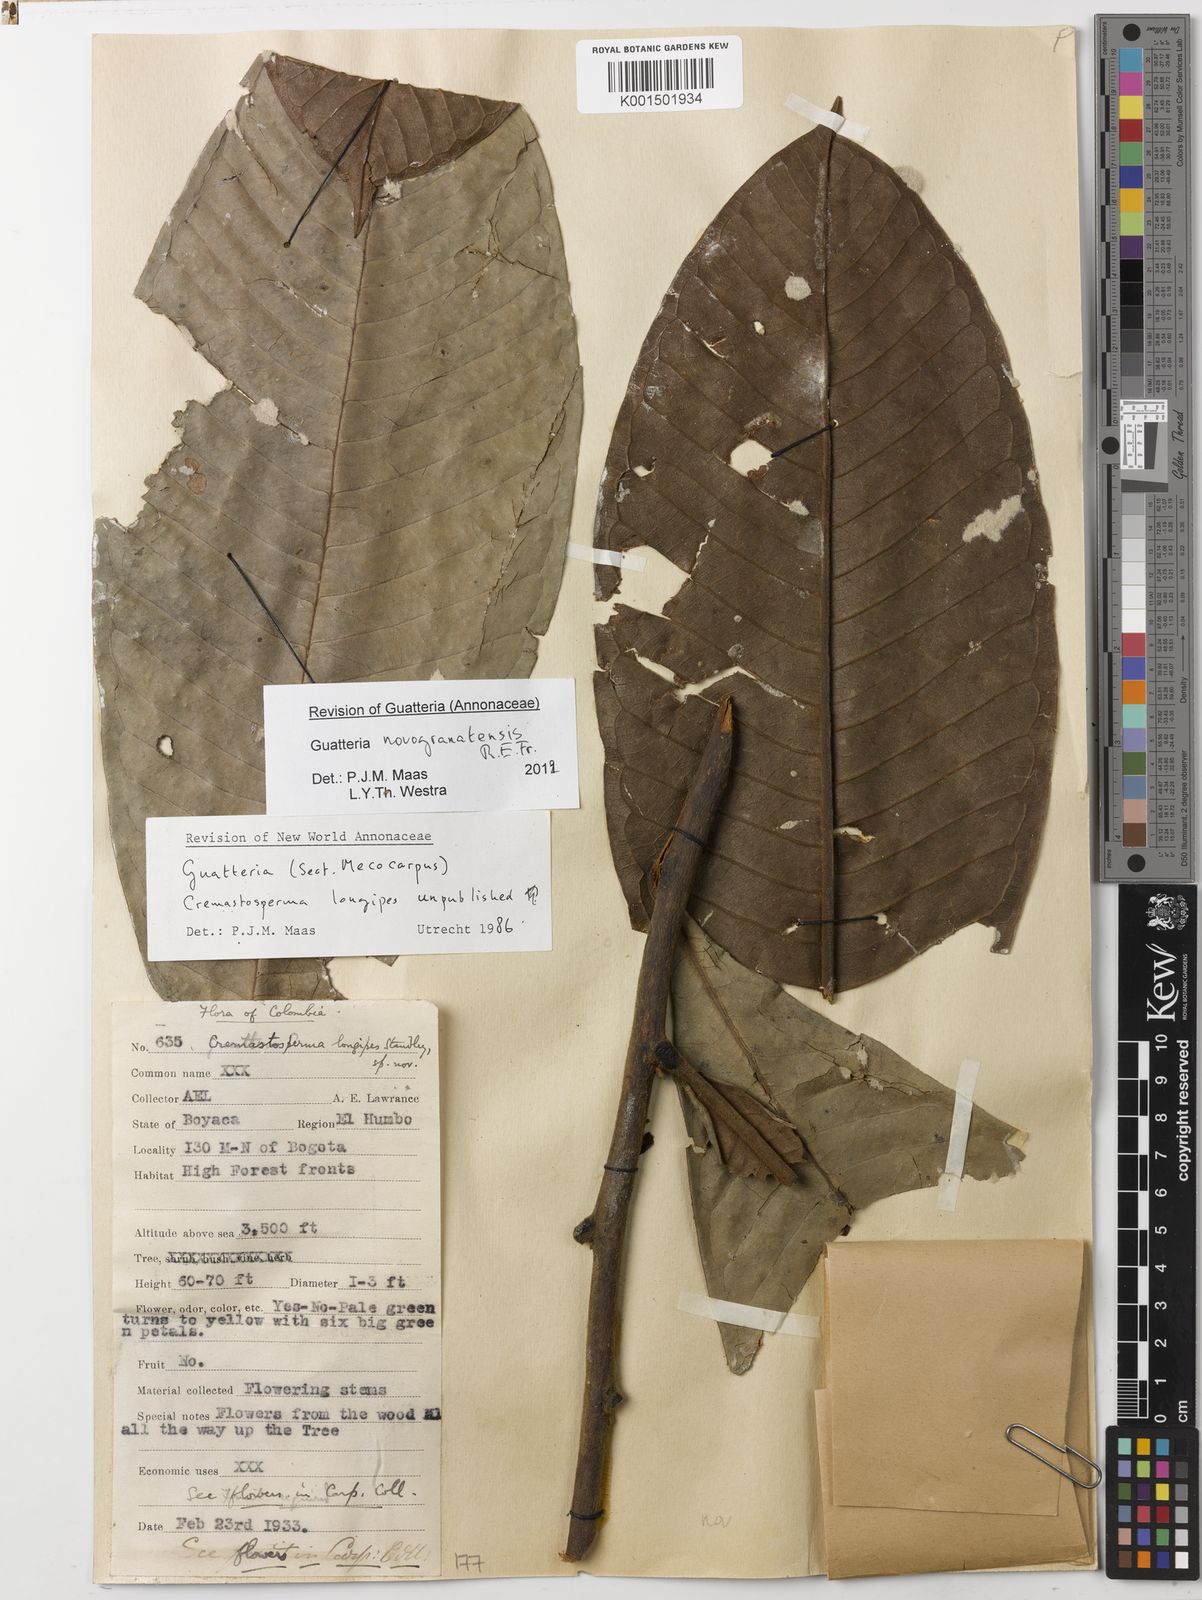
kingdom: Plantae
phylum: Tracheophyta
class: Magnoliopsida
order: Magnoliales
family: Annonaceae
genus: Guatteria
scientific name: Guatteria novogranatensis
